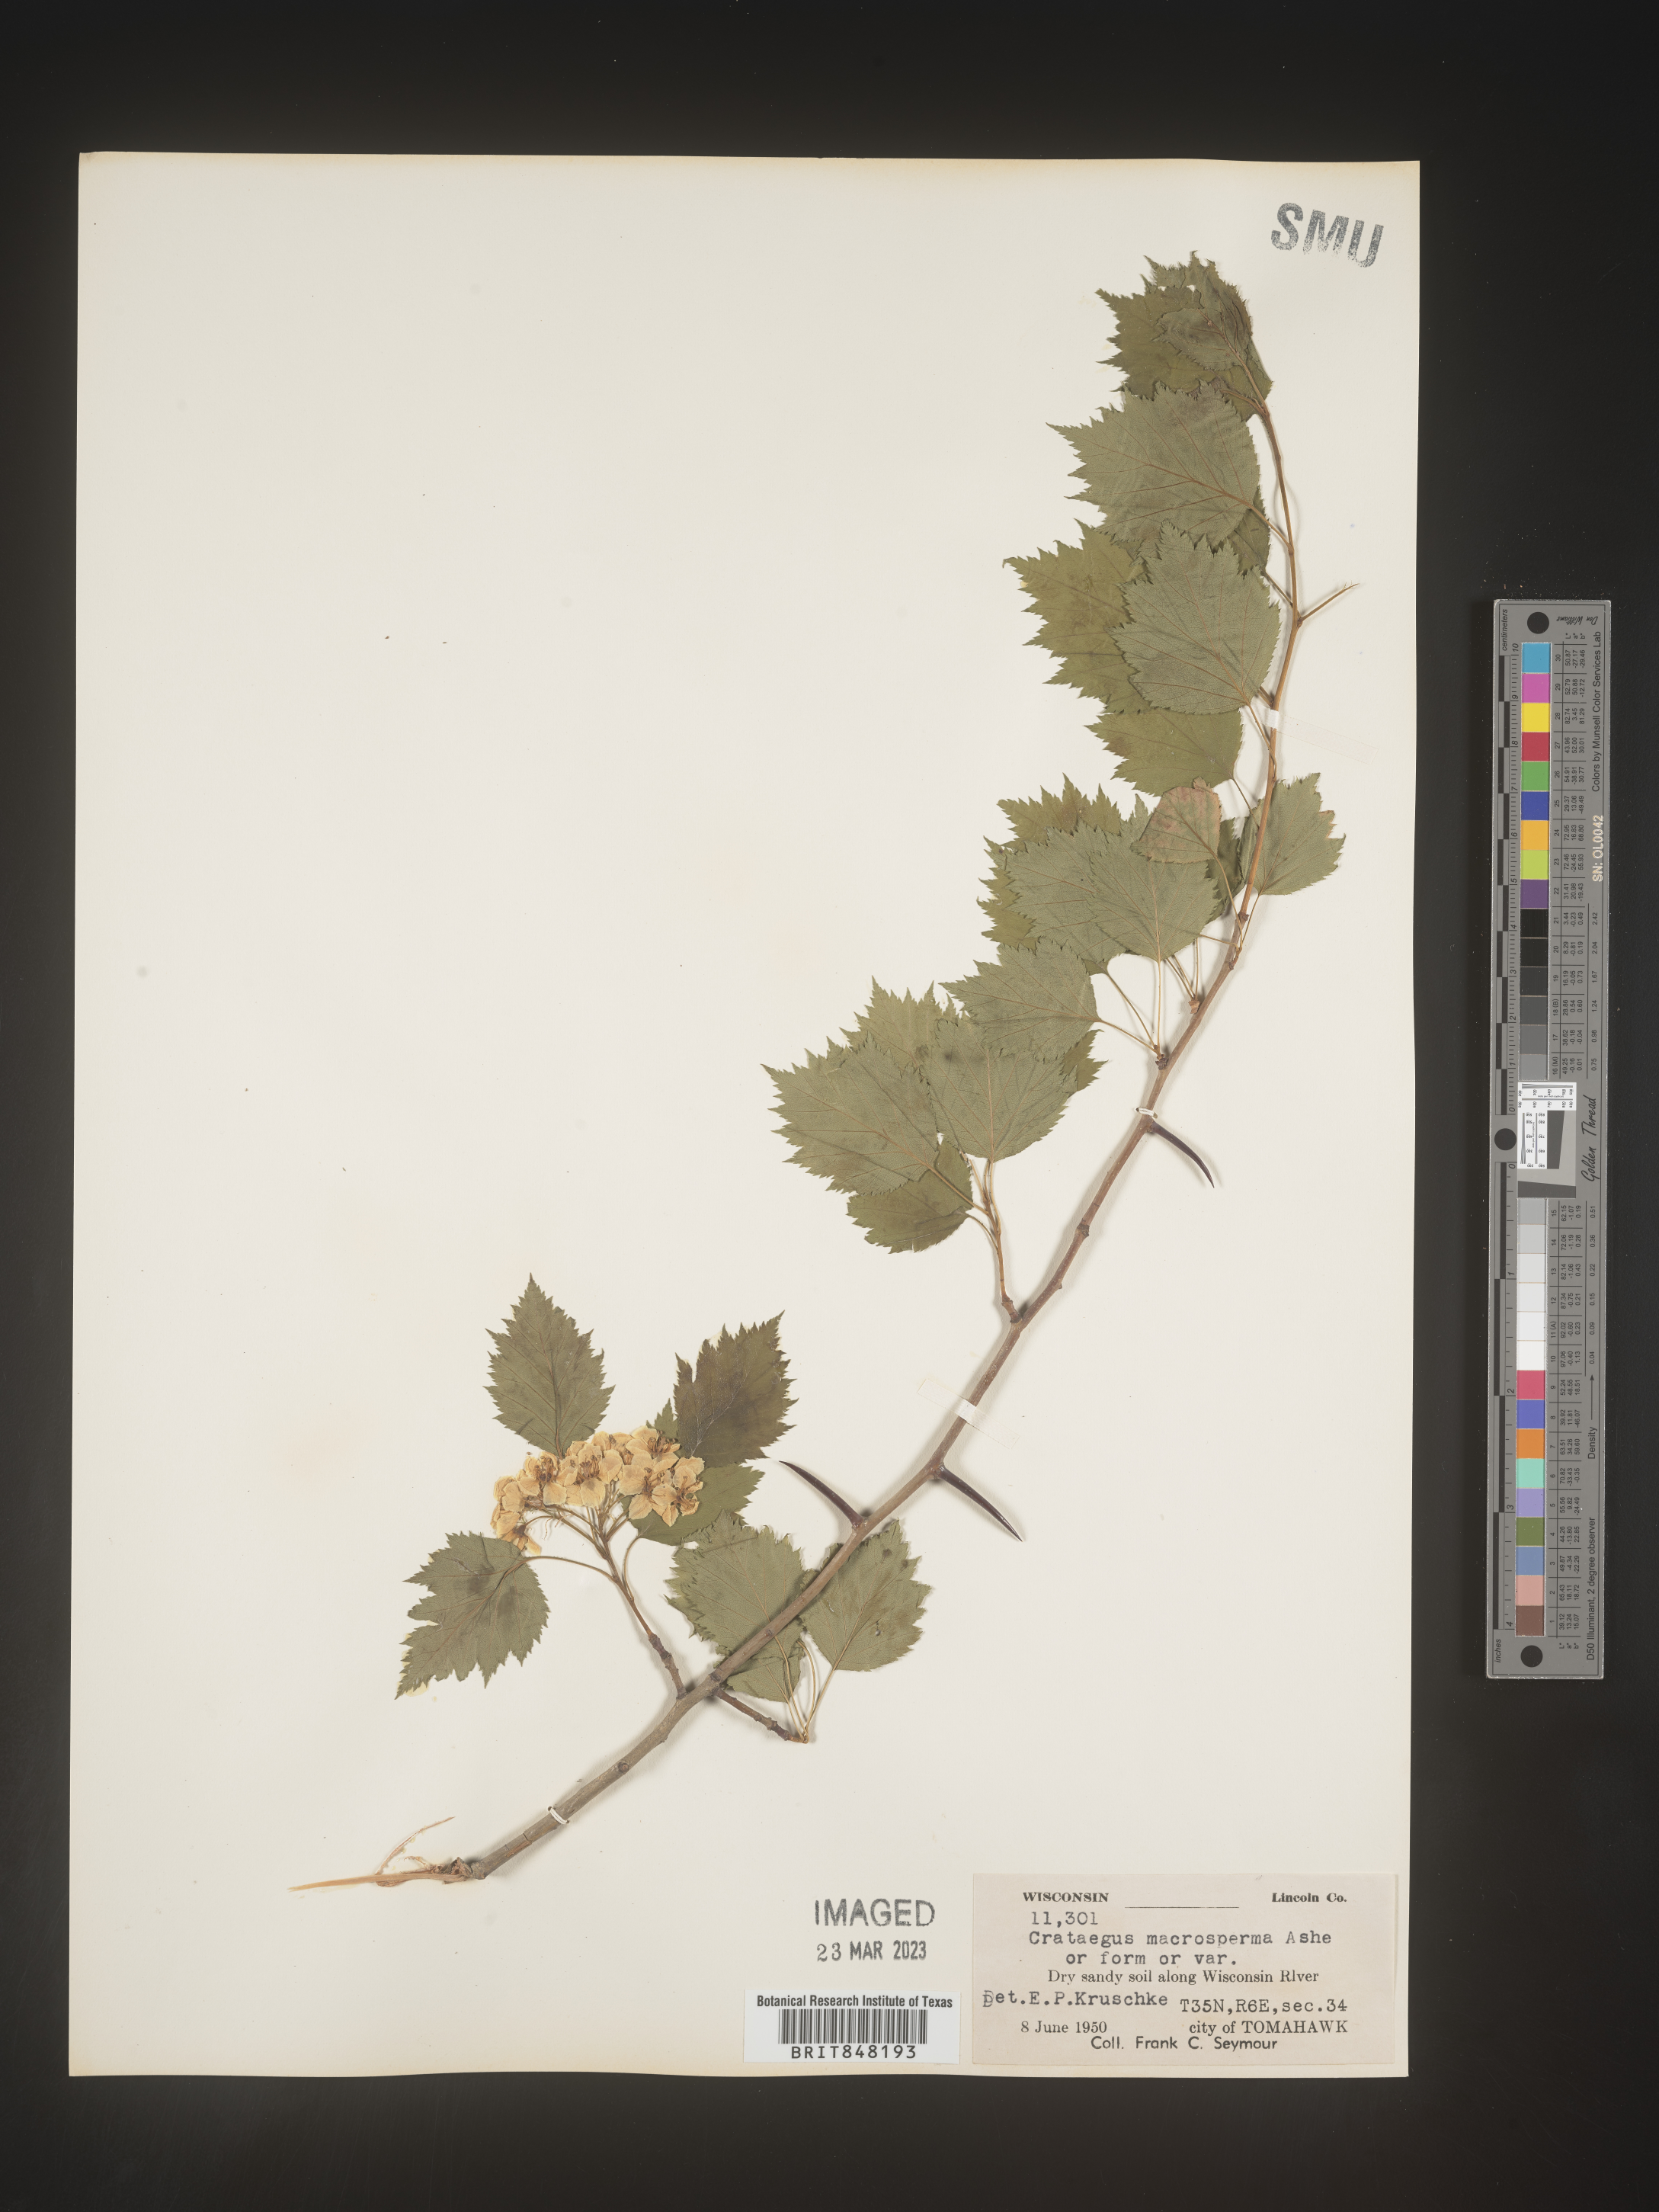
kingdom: Plantae
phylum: Tracheophyta
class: Magnoliopsida
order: Rosales
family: Rosaceae
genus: Crataegus
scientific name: Crataegus macrosperma
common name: Variable hawthorn
